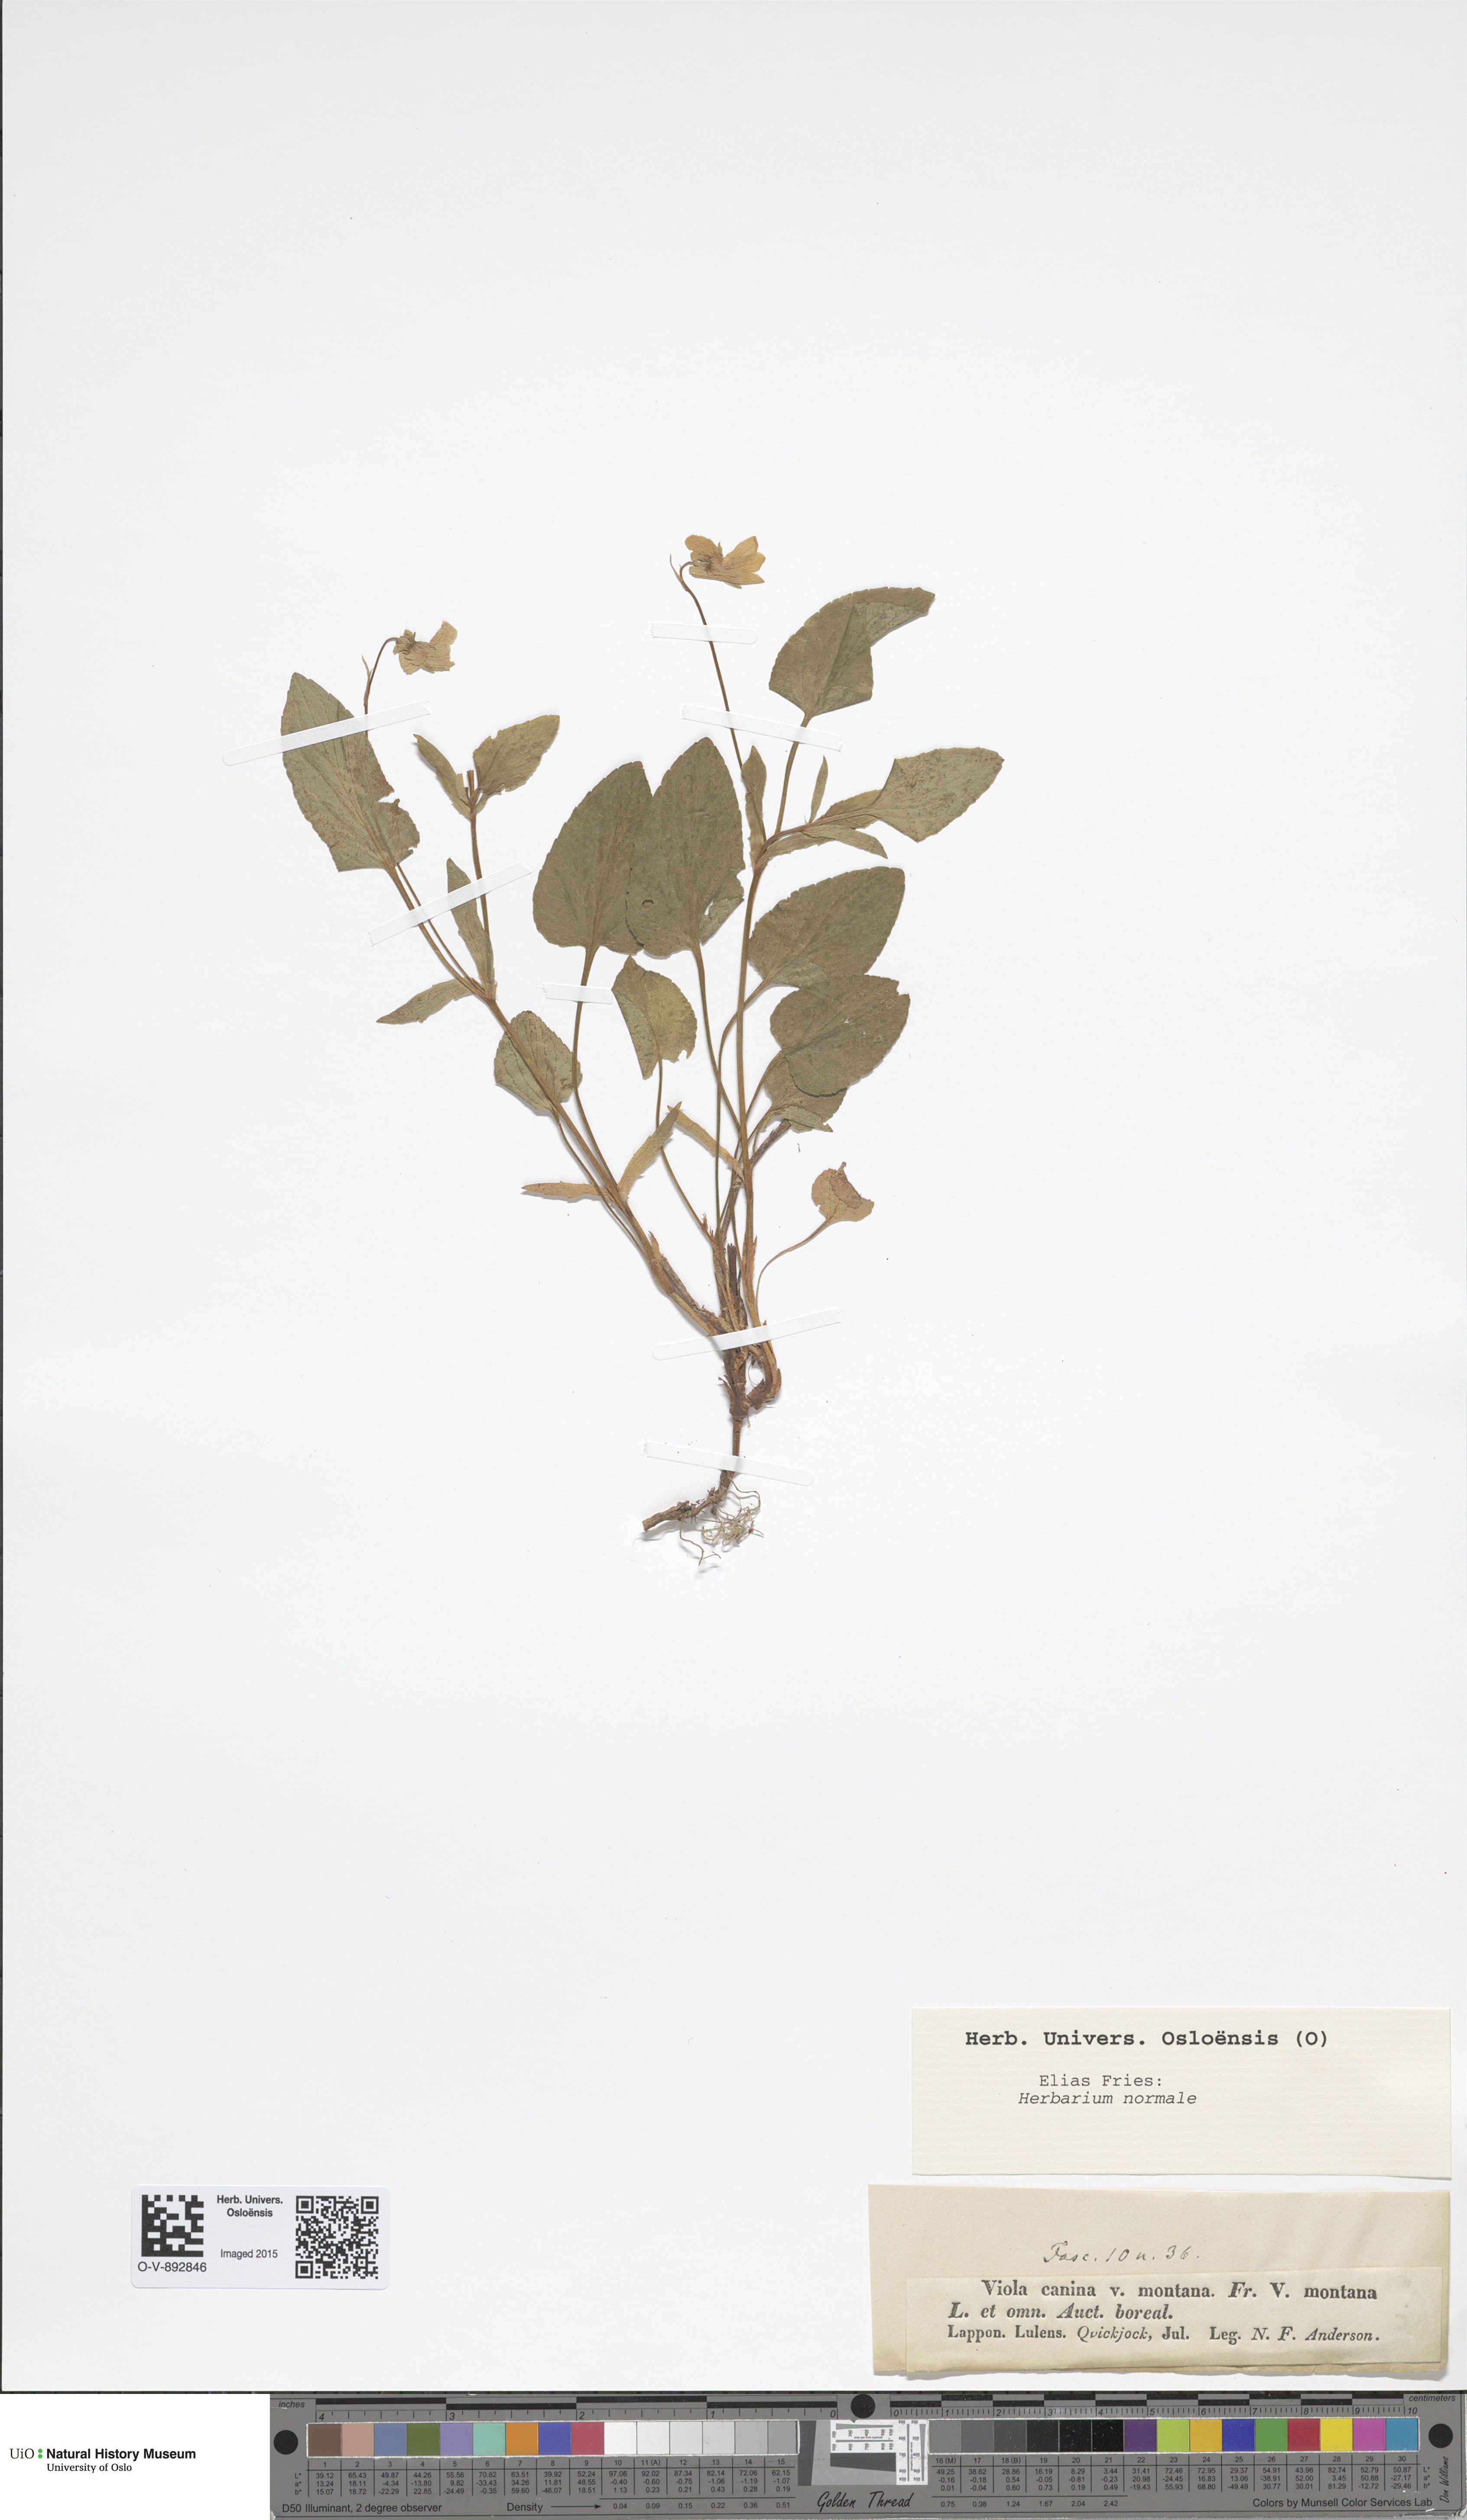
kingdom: Plantae
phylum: Tracheophyta
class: Magnoliopsida
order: Malpighiales
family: Violaceae
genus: Viola
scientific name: Viola ruppii
